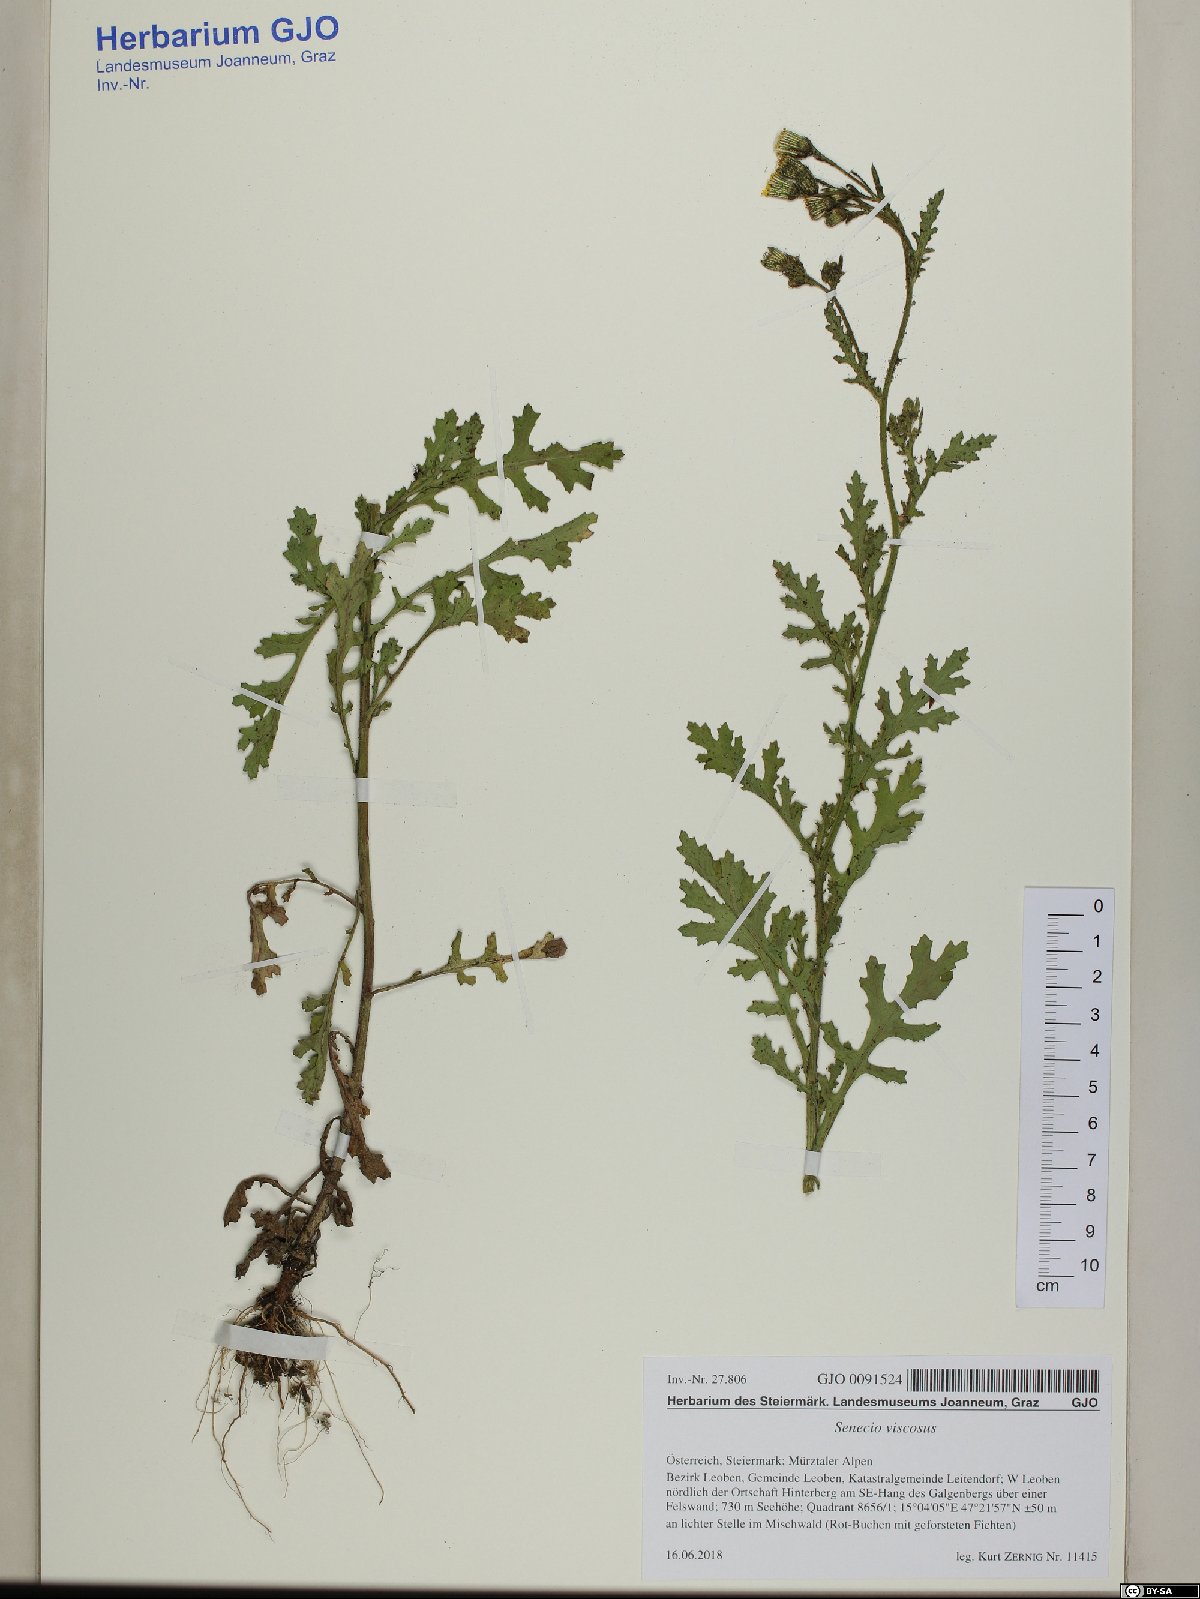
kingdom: Plantae
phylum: Tracheophyta
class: Magnoliopsida
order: Asterales
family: Asteraceae
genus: Senecio
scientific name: Senecio viscosus
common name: Sticky groundsel
